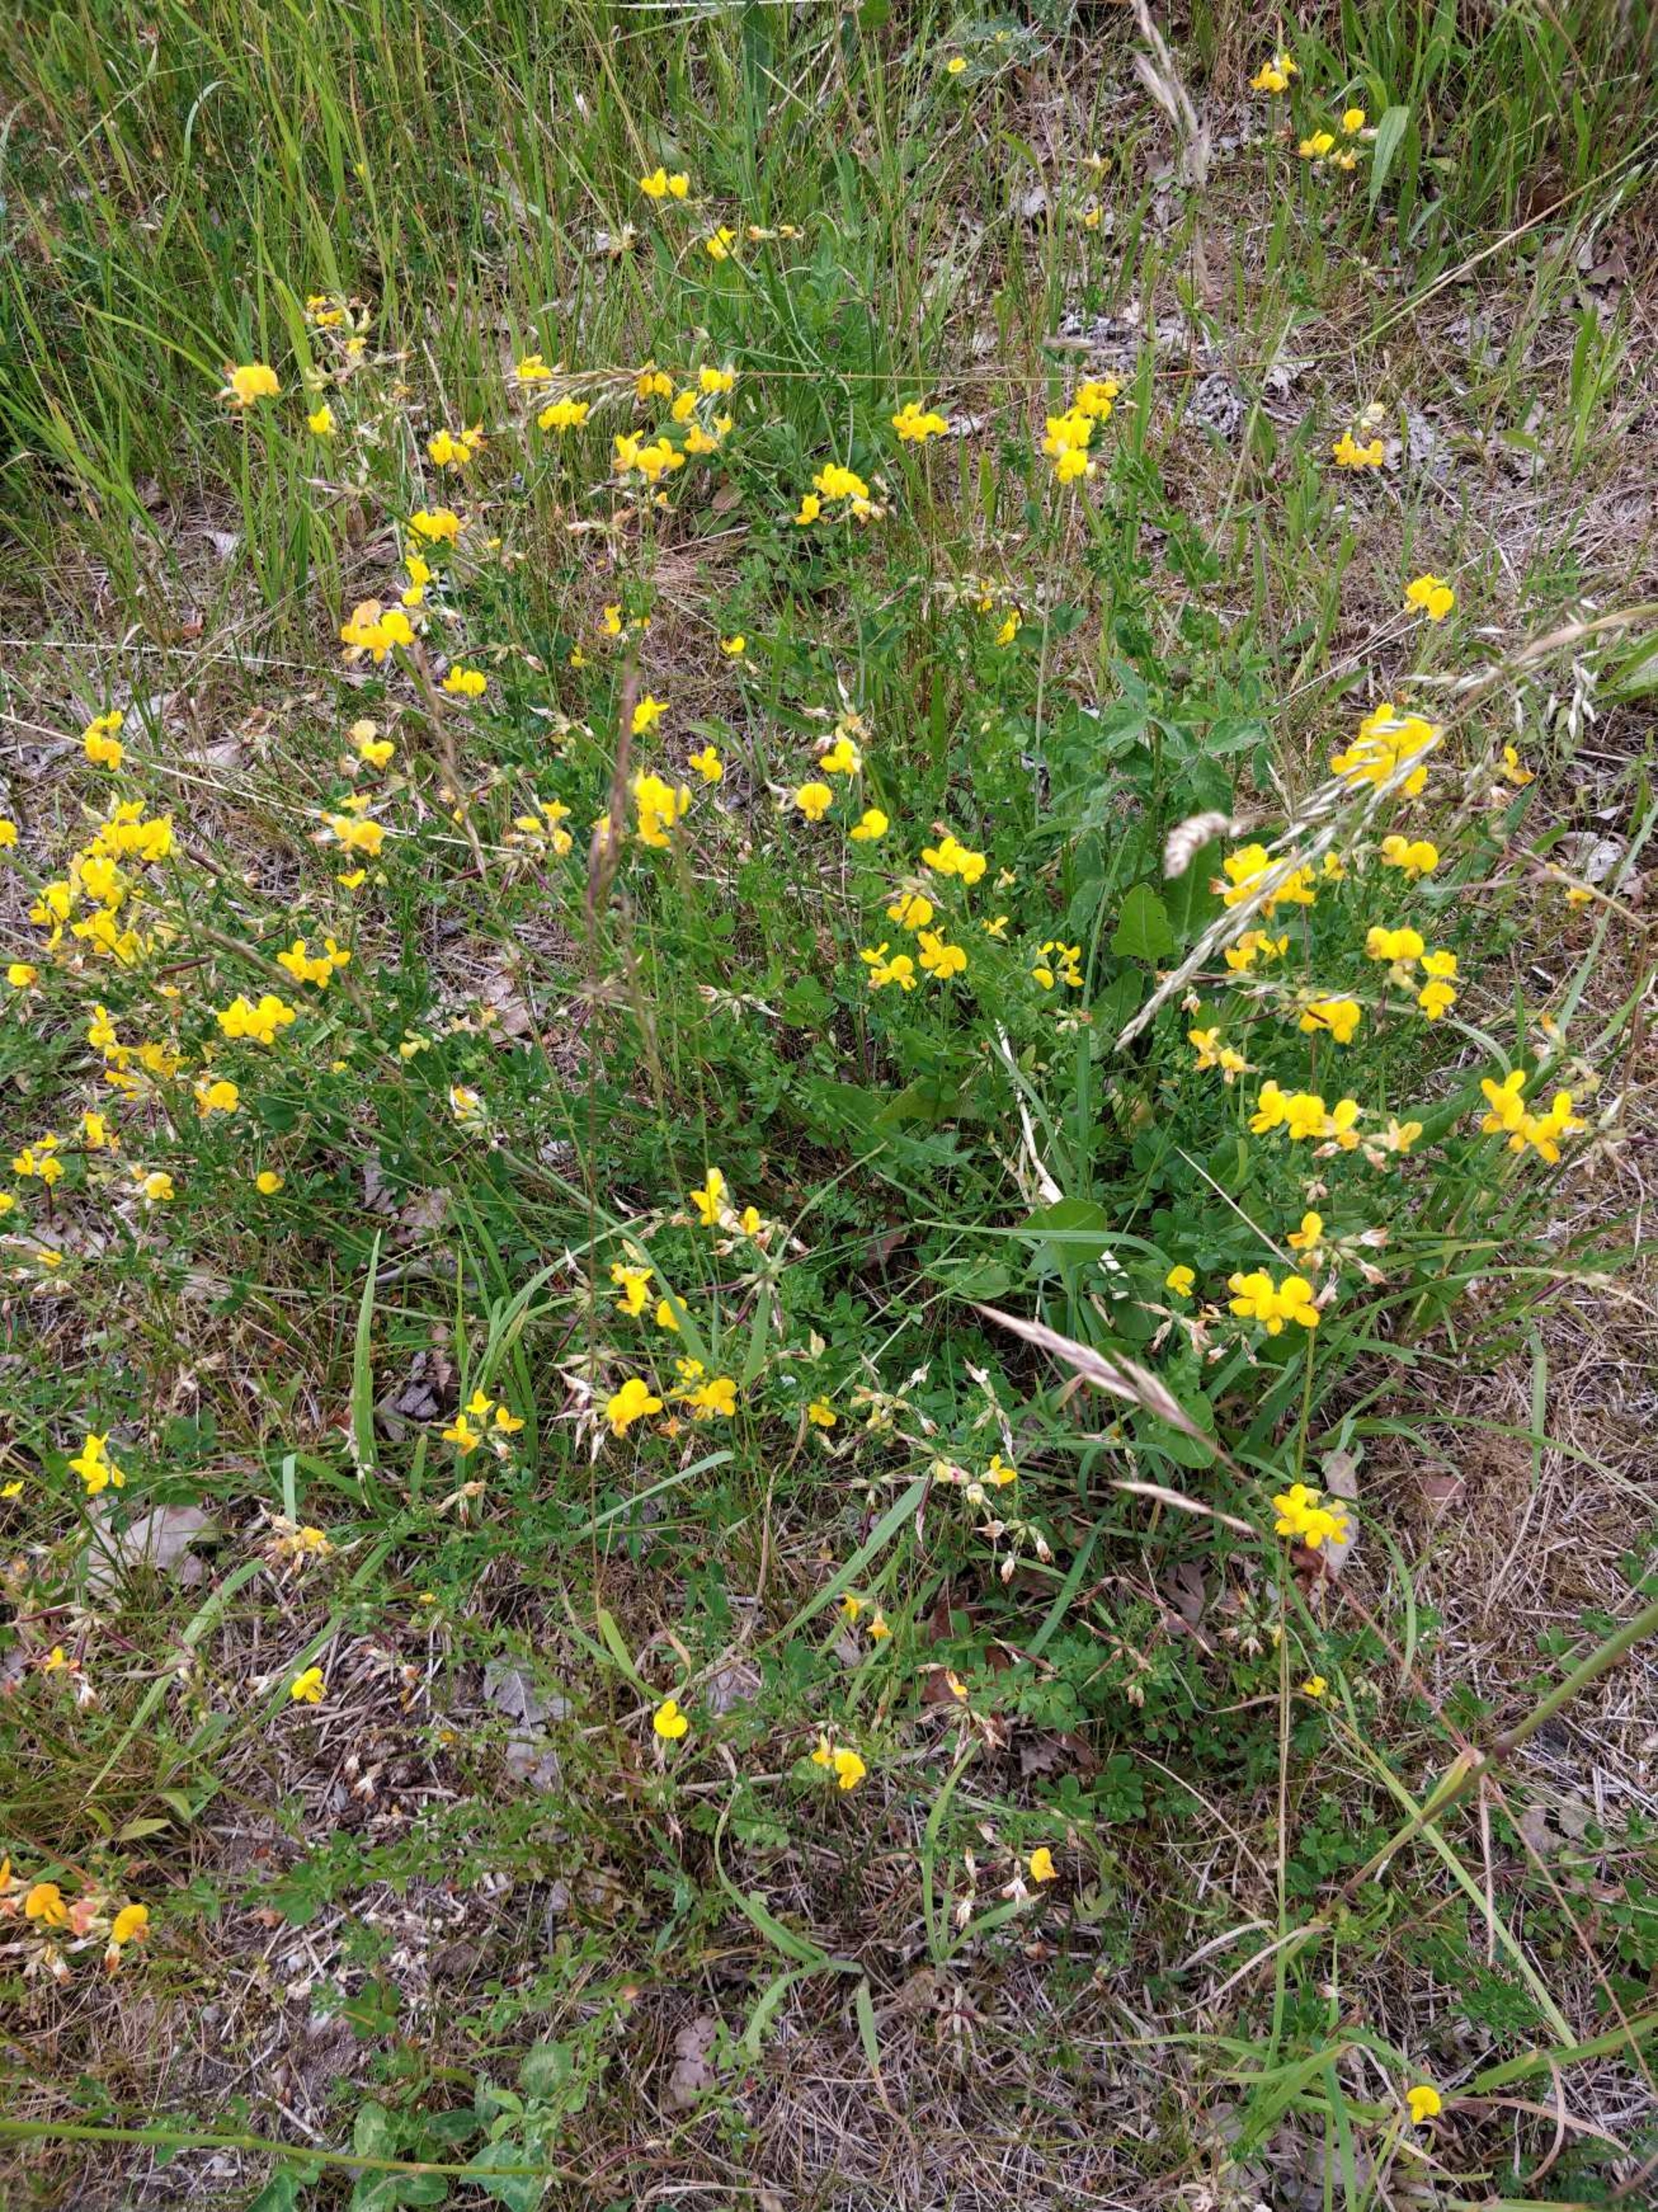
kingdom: Plantae
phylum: Tracheophyta
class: Magnoliopsida
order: Fabales
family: Fabaceae
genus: Lotus
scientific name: Lotus corniculatus
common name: Almindelig kællingetand
